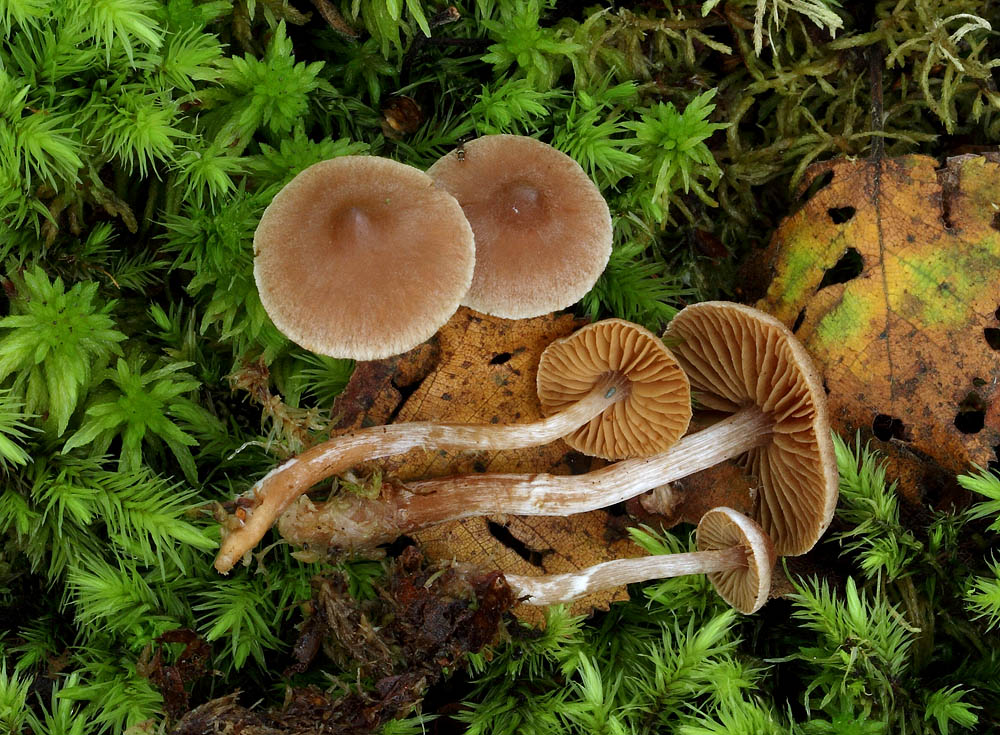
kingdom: Fungi
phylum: Basidiomycota
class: Agaricomycetes
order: Agaricales
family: Cortinariaceae
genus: Cortinarius
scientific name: Cortinarius comptulus
